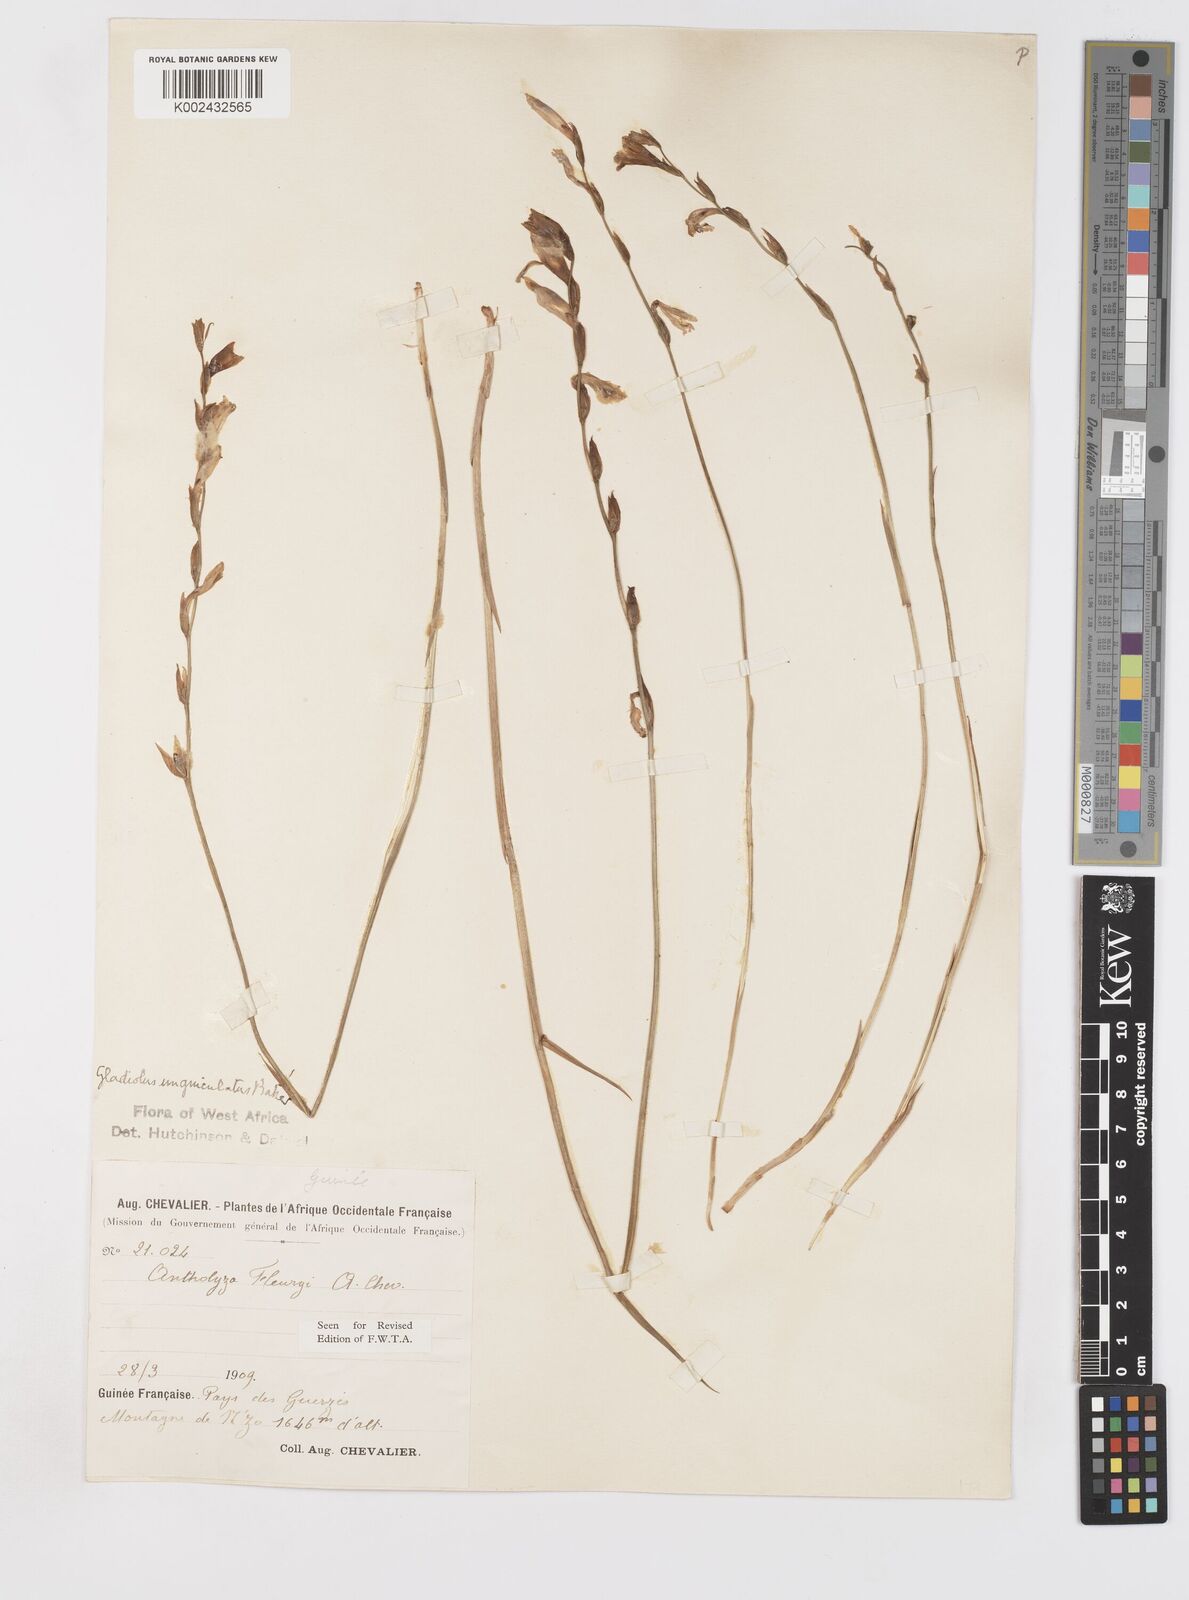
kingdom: Plantae
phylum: Tracheophyta
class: Liliopsida
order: Asparagales
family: Iridaceae
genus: Gladiolus
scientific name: Gladiolus unguiculatus
